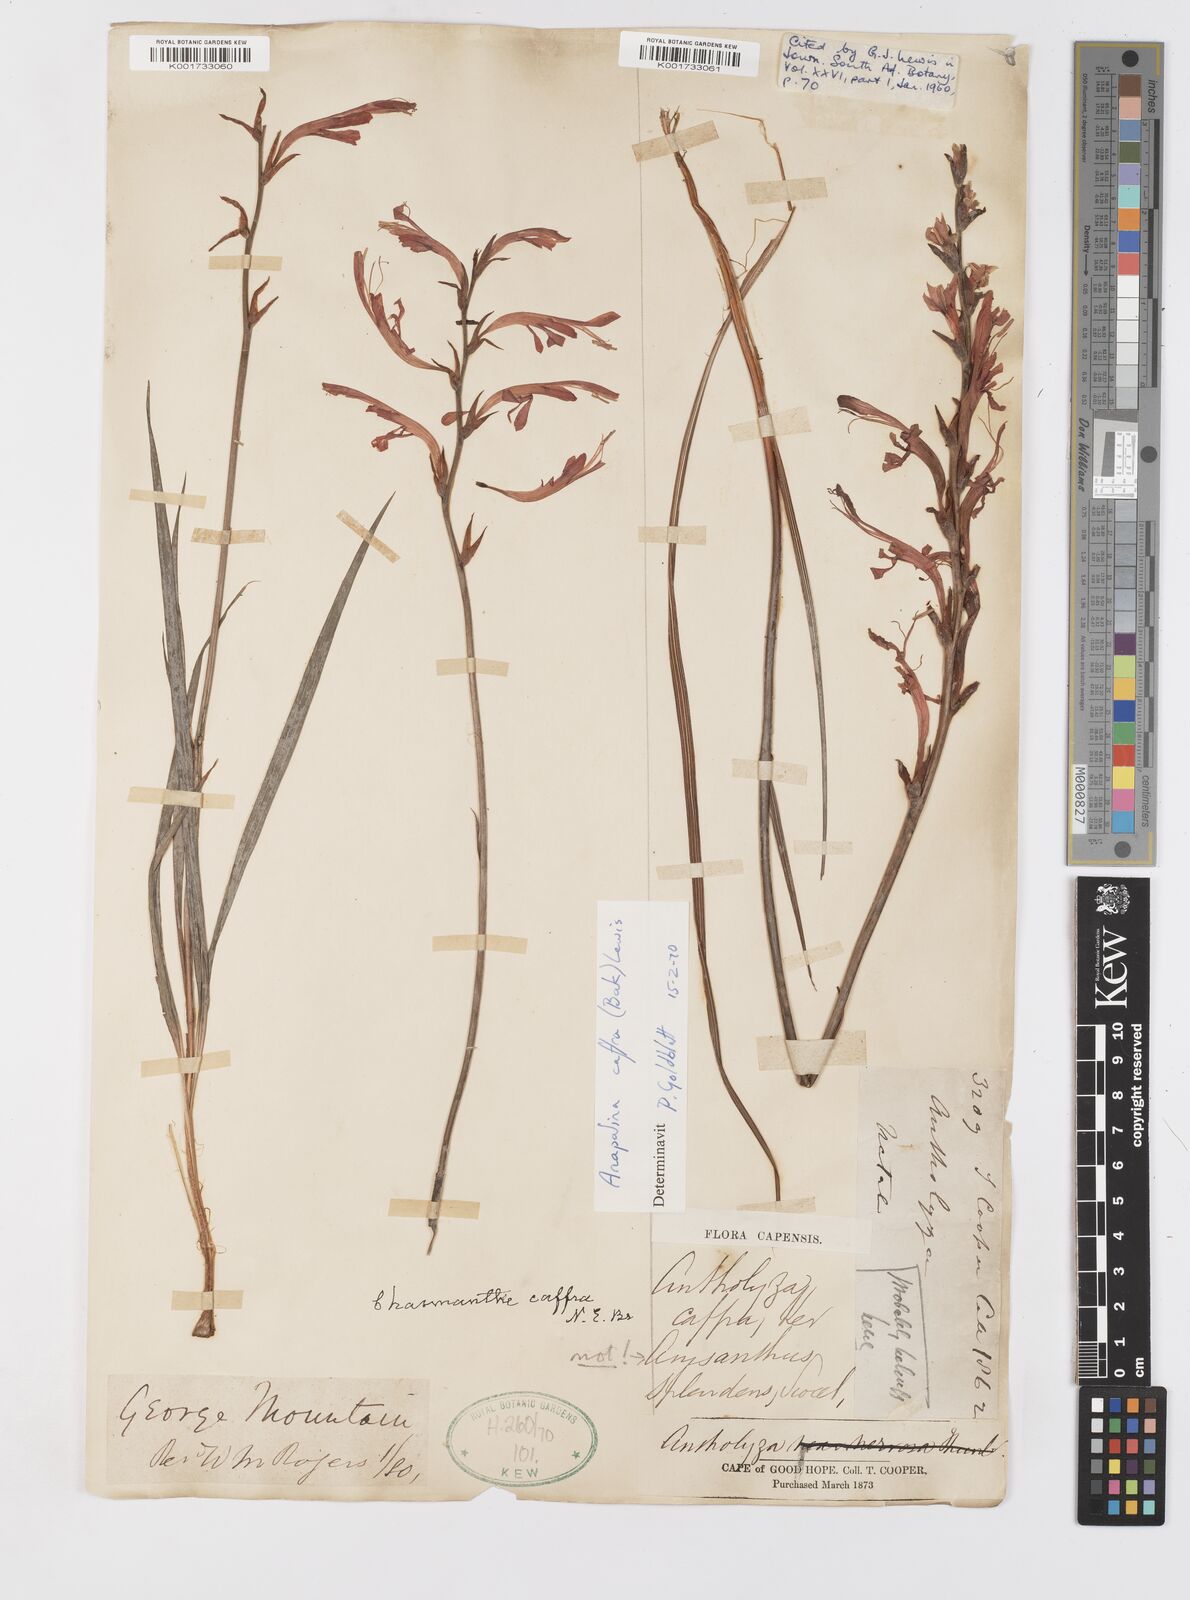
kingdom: Plantae
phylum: Tracheophyta
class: Liliopsida
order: Asparagales
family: Iridaceae
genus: Tritoniopsis
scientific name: Tritoniopsis caffra
